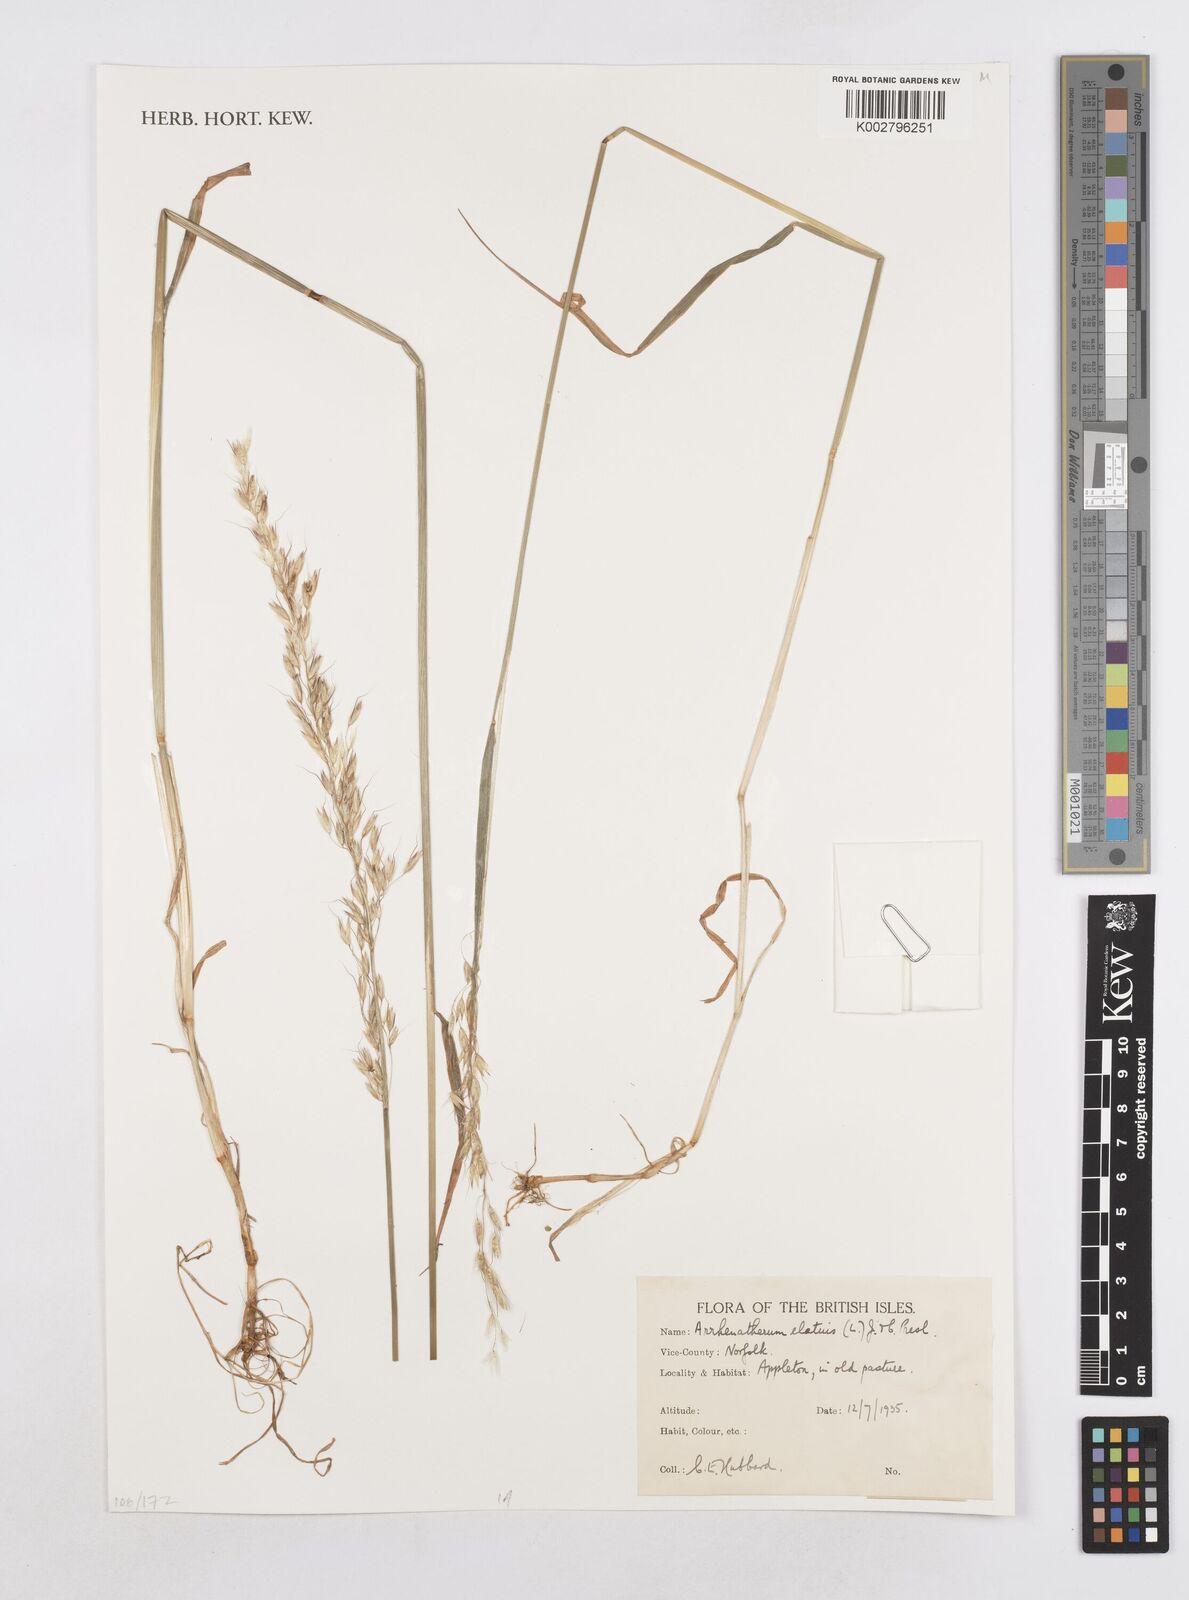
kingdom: Plantae
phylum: Tracheophyta
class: Liliopsida
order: Poales
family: Poaceae
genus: Arrhenatherum
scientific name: Arrhenatherum elatius
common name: Tall oatgrass
